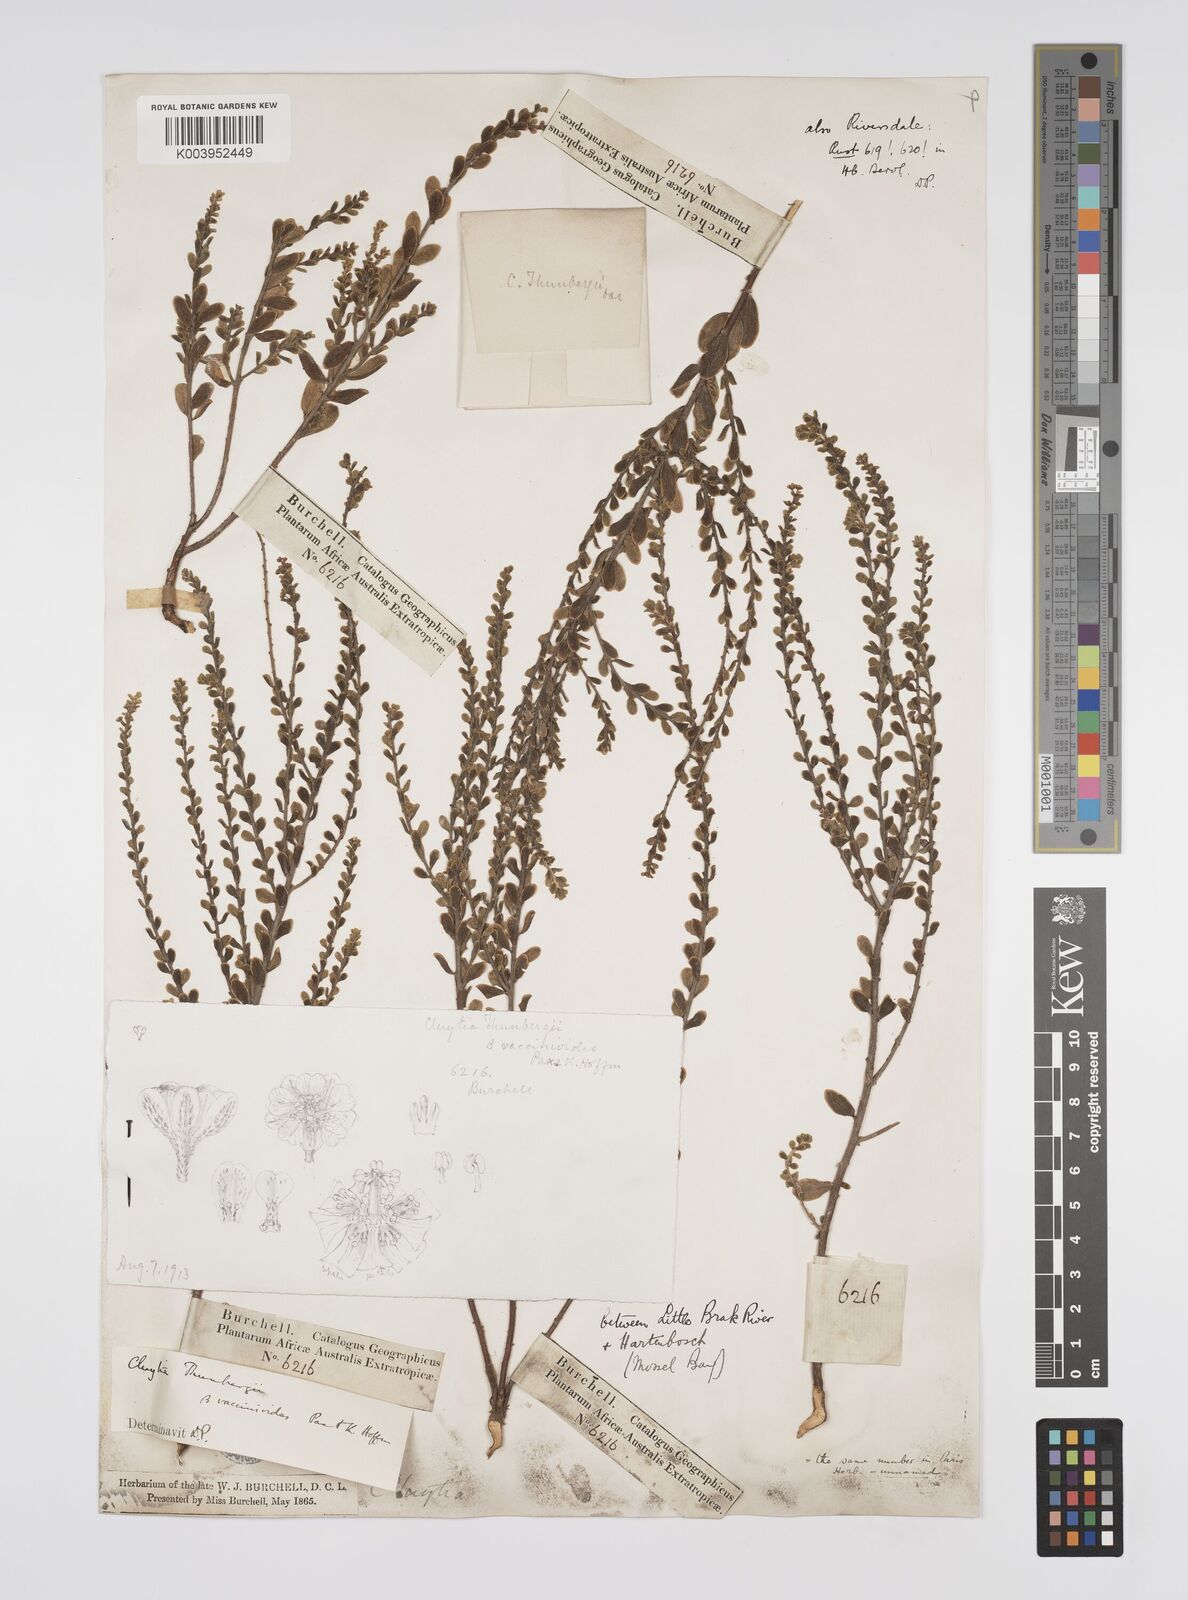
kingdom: Plantae
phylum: Tracheophyta
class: Magnoliopsida
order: Malpighiales
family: Peraceae
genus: Clutia
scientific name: Clutia heterophylla
